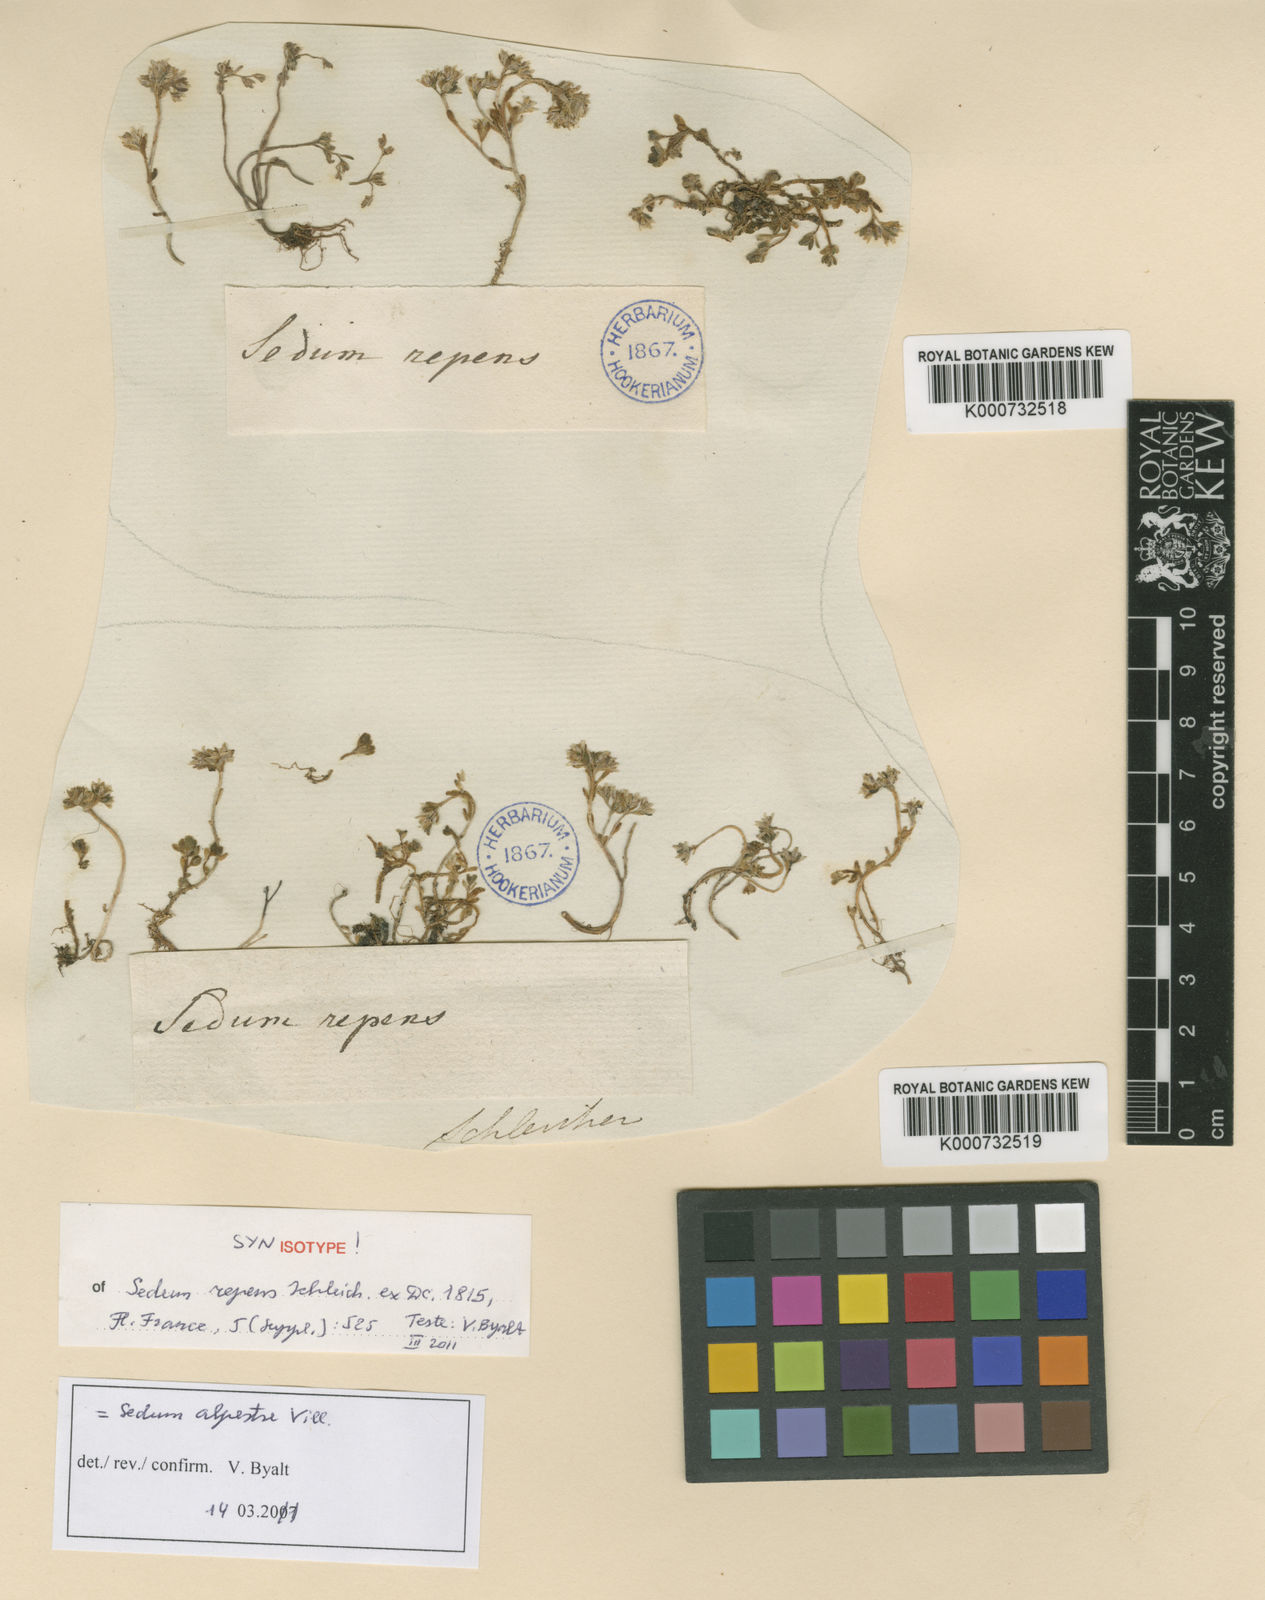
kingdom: Plantae
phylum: Tracheophyta
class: Magnoliopsida
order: Saxifragales
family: Crassulaceae
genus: Sedum
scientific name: Sedum alpestre
